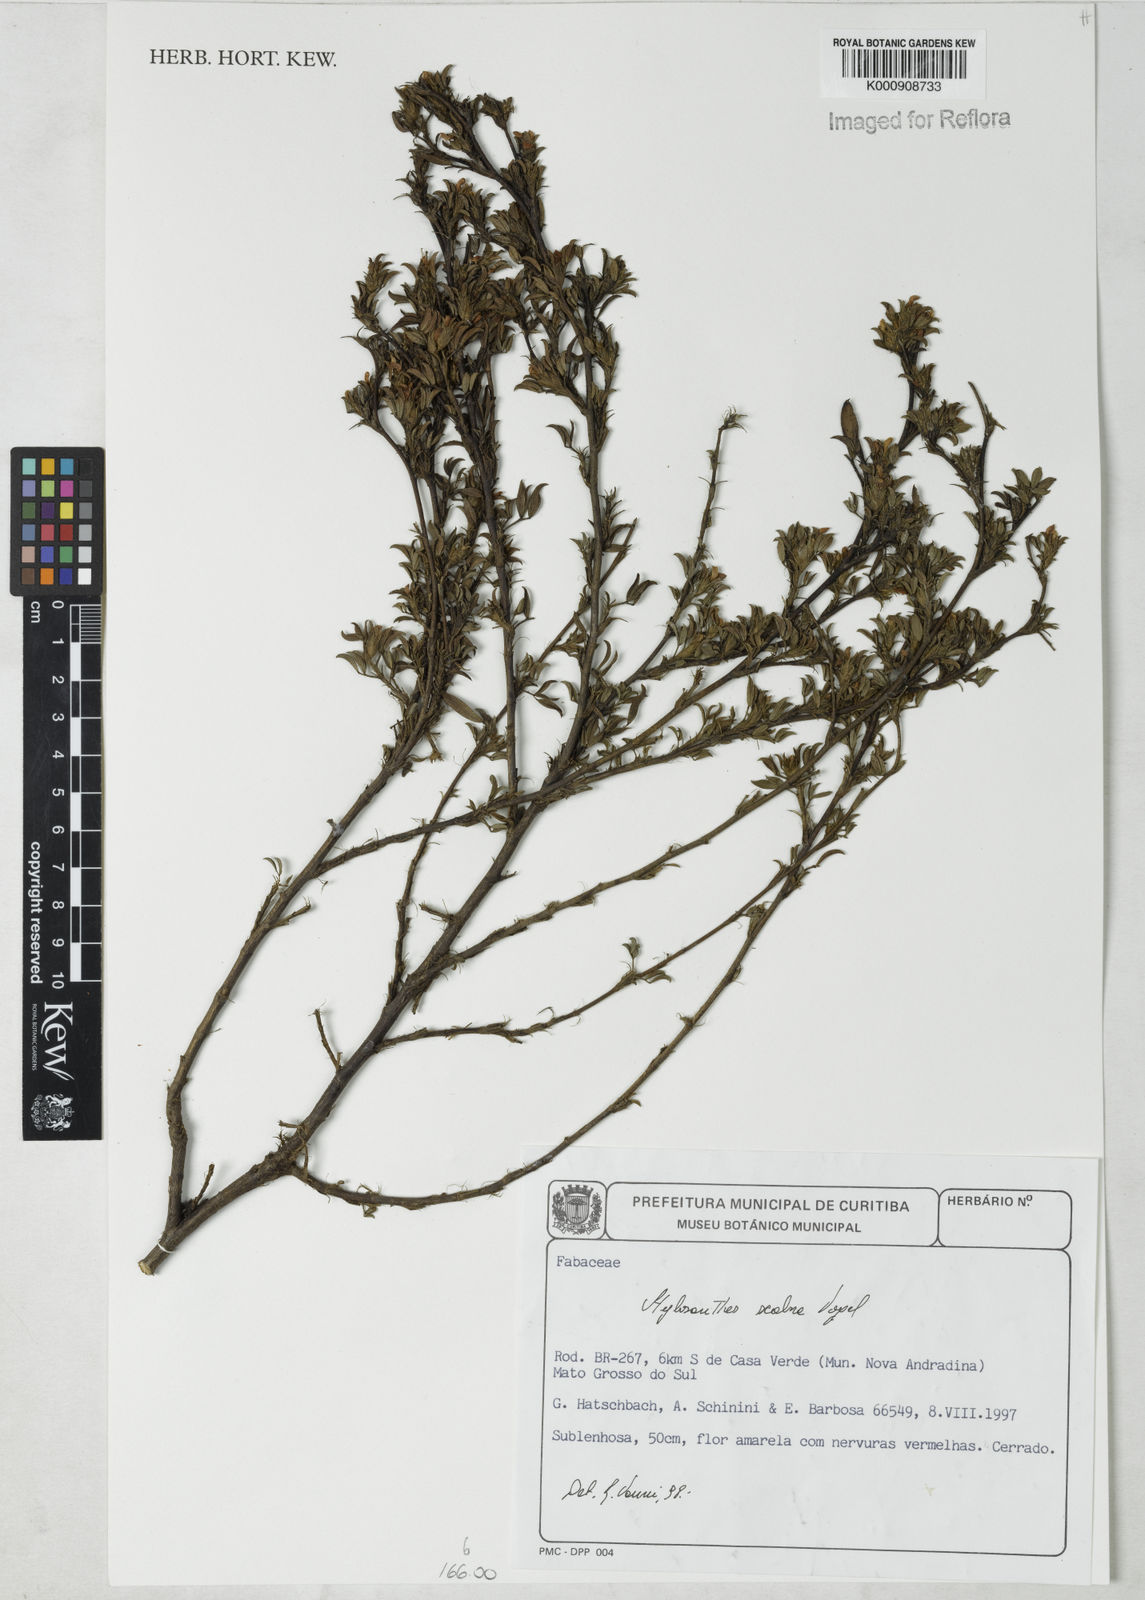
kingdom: Plantae
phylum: Tracheophyta
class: Magnoliopsida
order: Fabales
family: Fabaceae
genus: Stylosanthes
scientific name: Stylosanthes scabra
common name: Pencilflower
